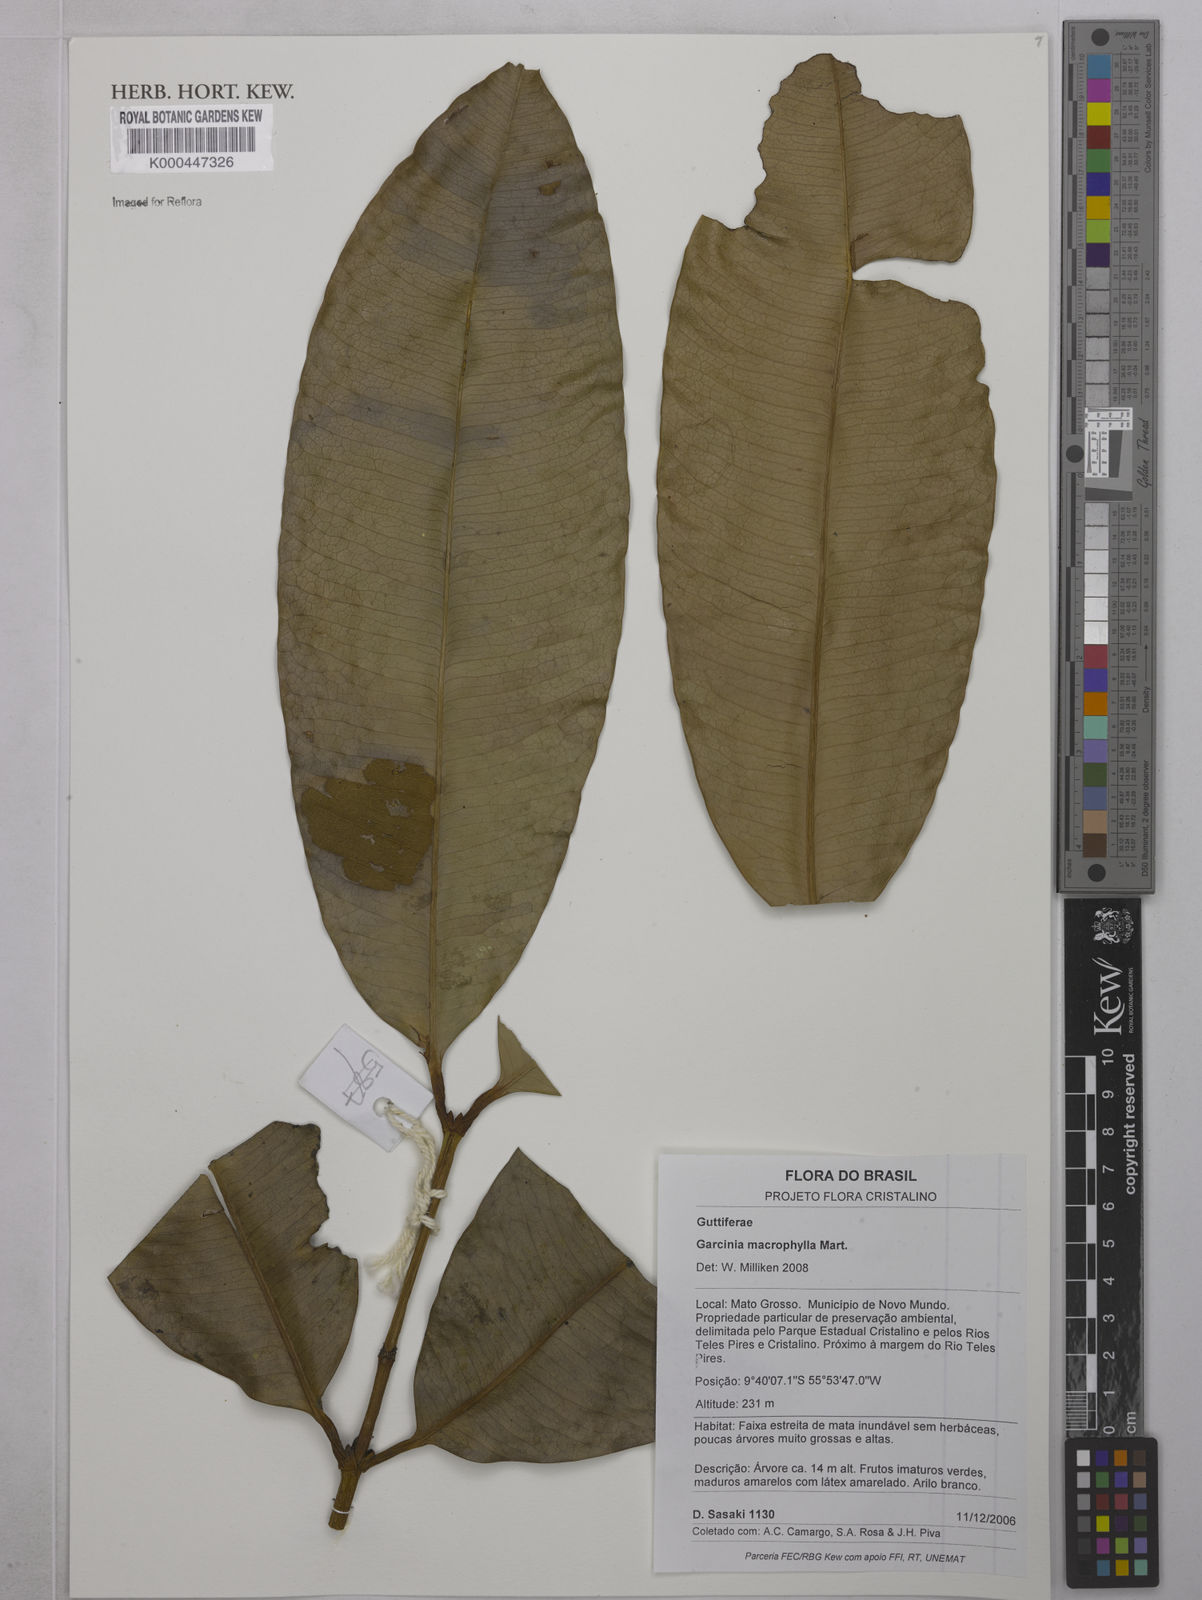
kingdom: Plantae
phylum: Tracheophyta
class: Magnoliopsida
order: Malpighiales
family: Clusiaceae
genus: Garcinia
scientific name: Garcinia macrophylla
